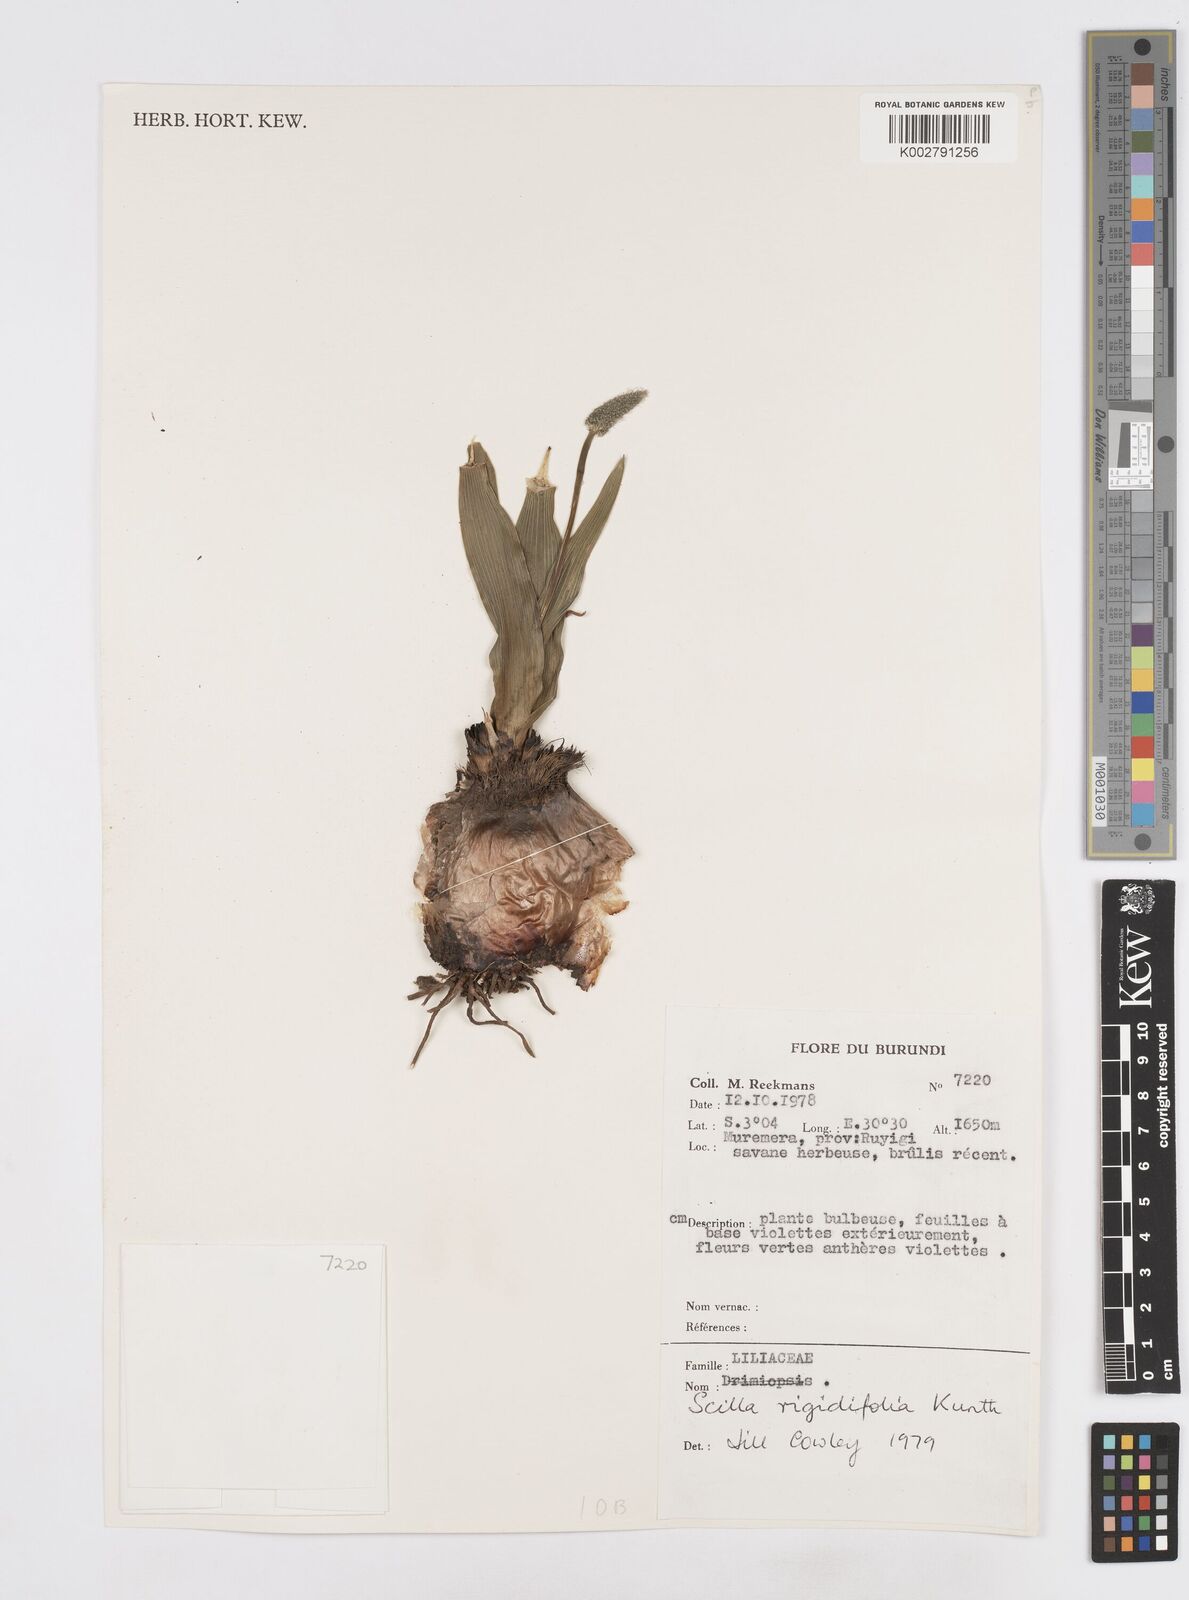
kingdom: Plantae
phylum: Tracheophyta
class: Liliopsida
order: Asparagales
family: Asparagaceae
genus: Schizocarphus
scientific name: Schizocarphus nervosus
